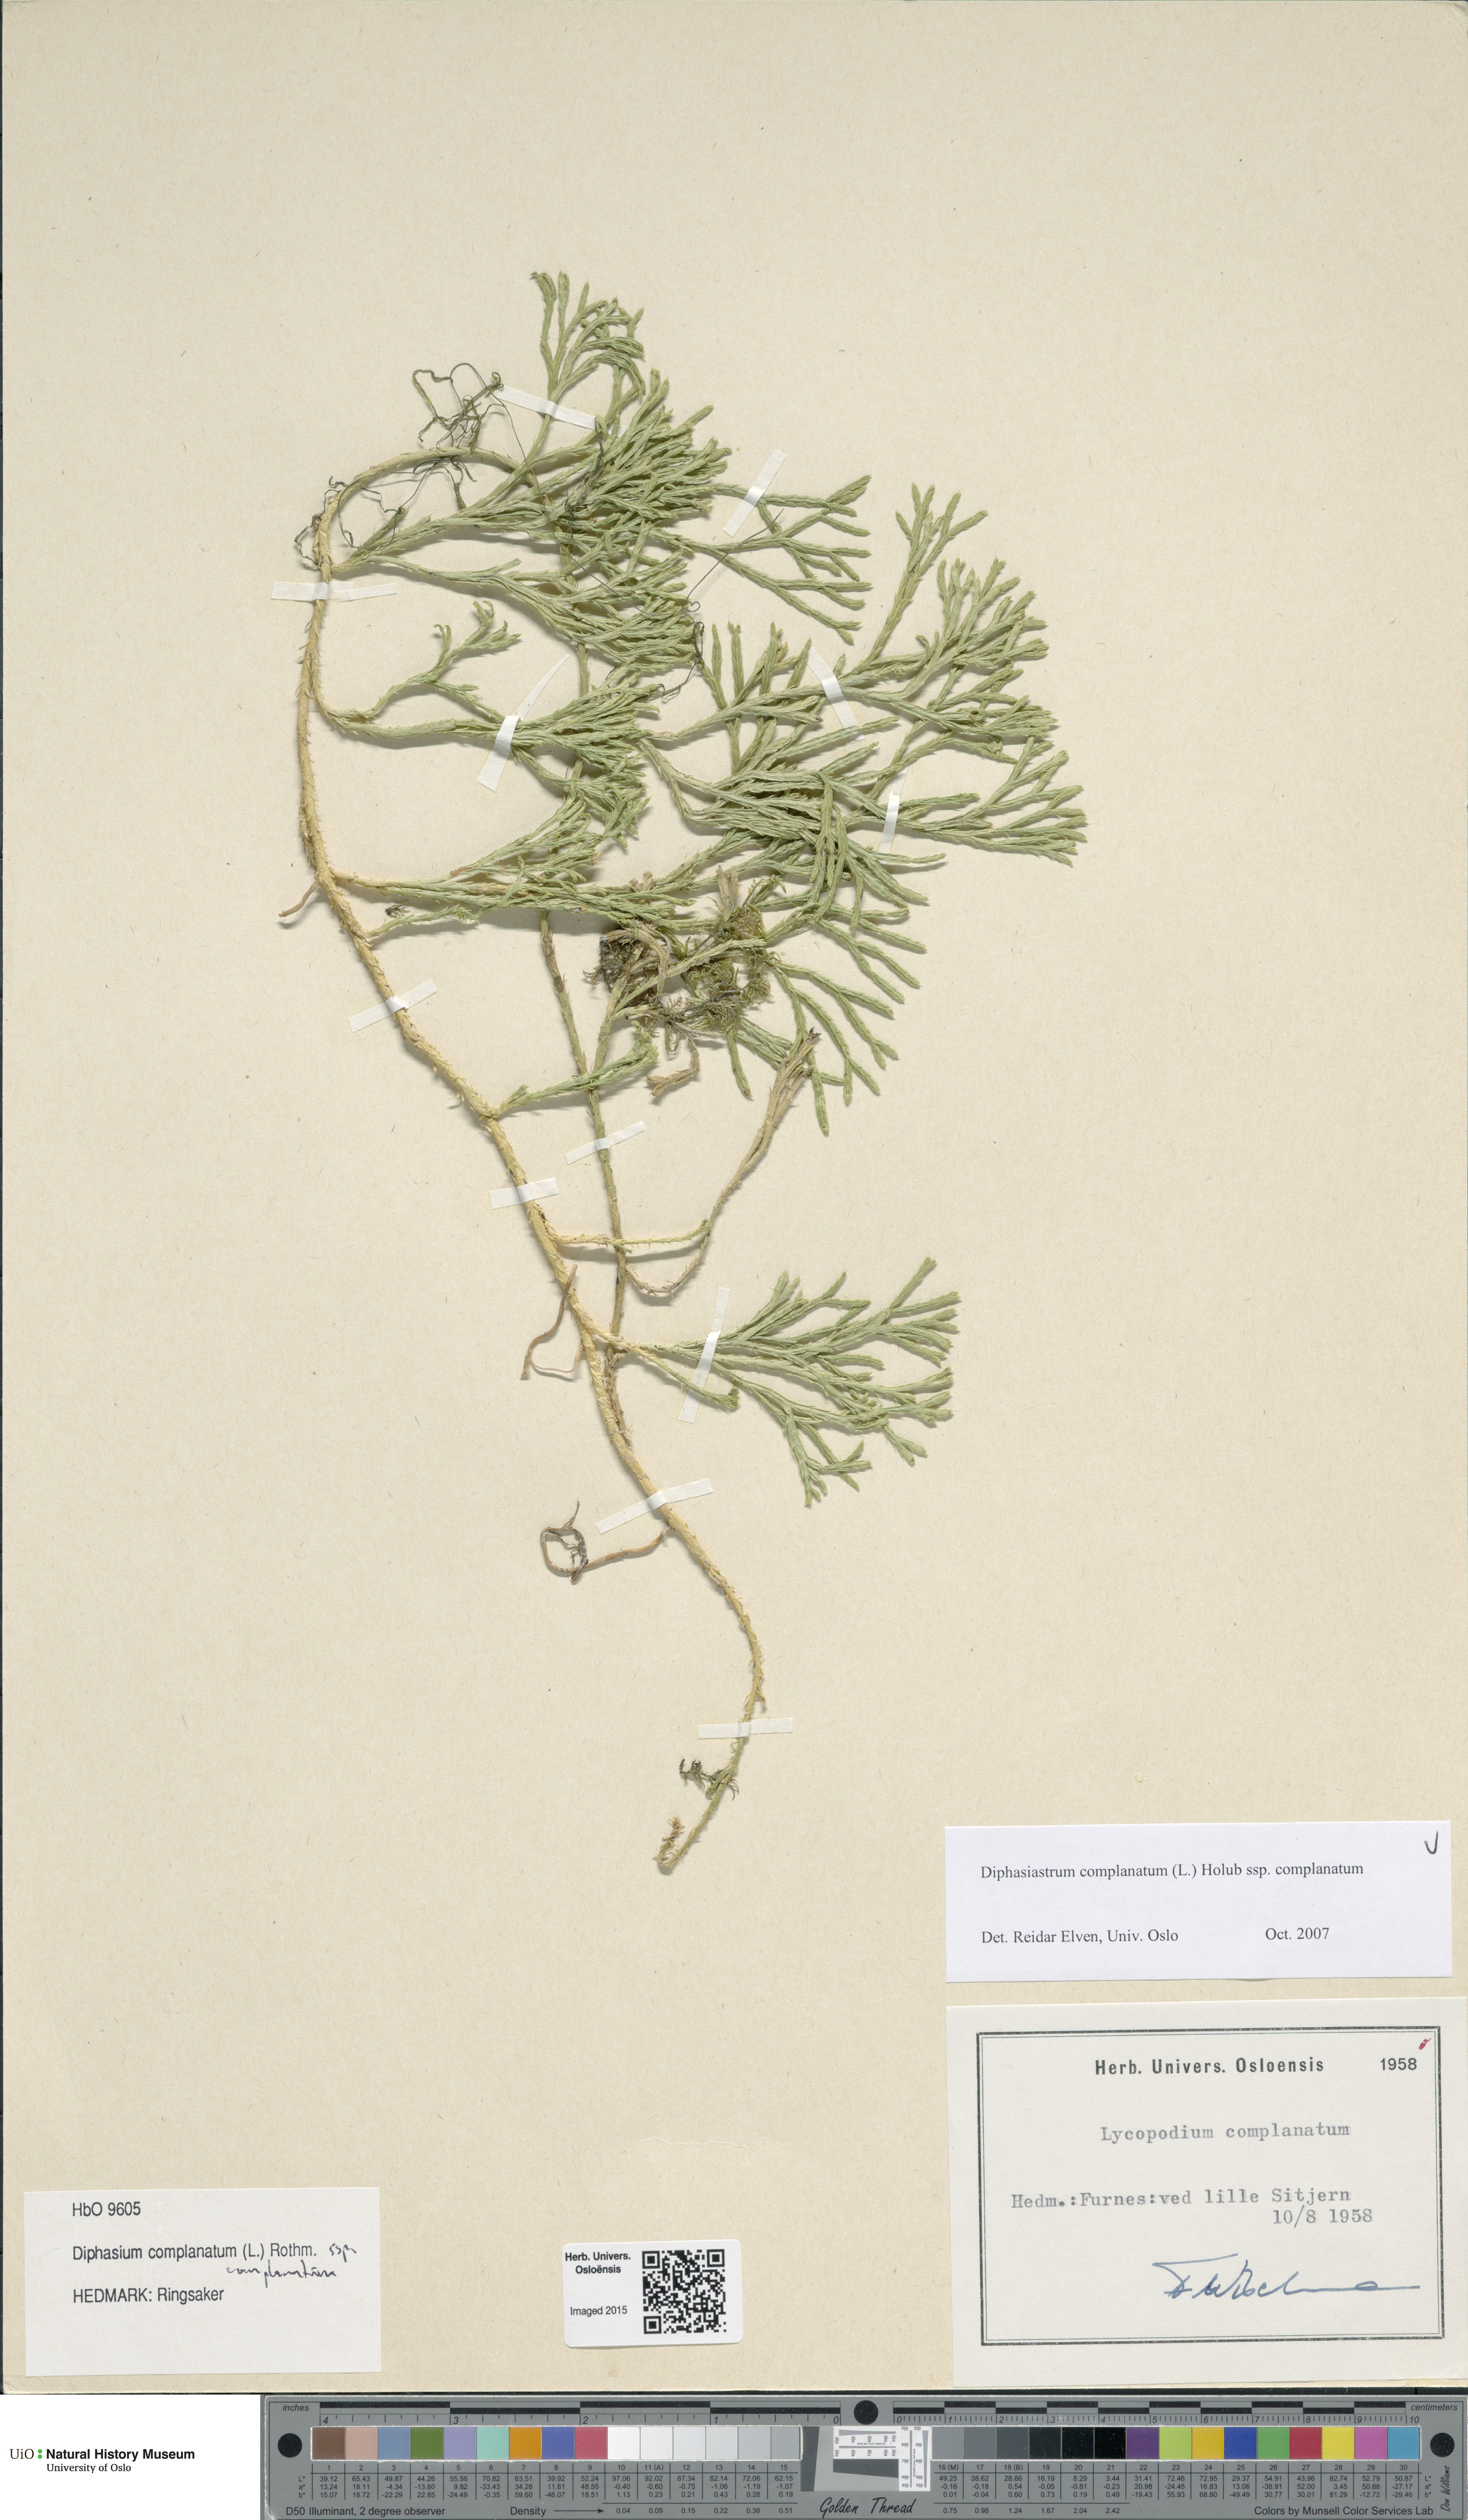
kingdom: Plantae
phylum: Tracheophyta
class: Lycopodiopsida
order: Lycopodiales
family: Lycopodiaceae
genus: Diphasiastrum
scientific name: Diphasiastrum complanatum
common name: Northern running-pine
